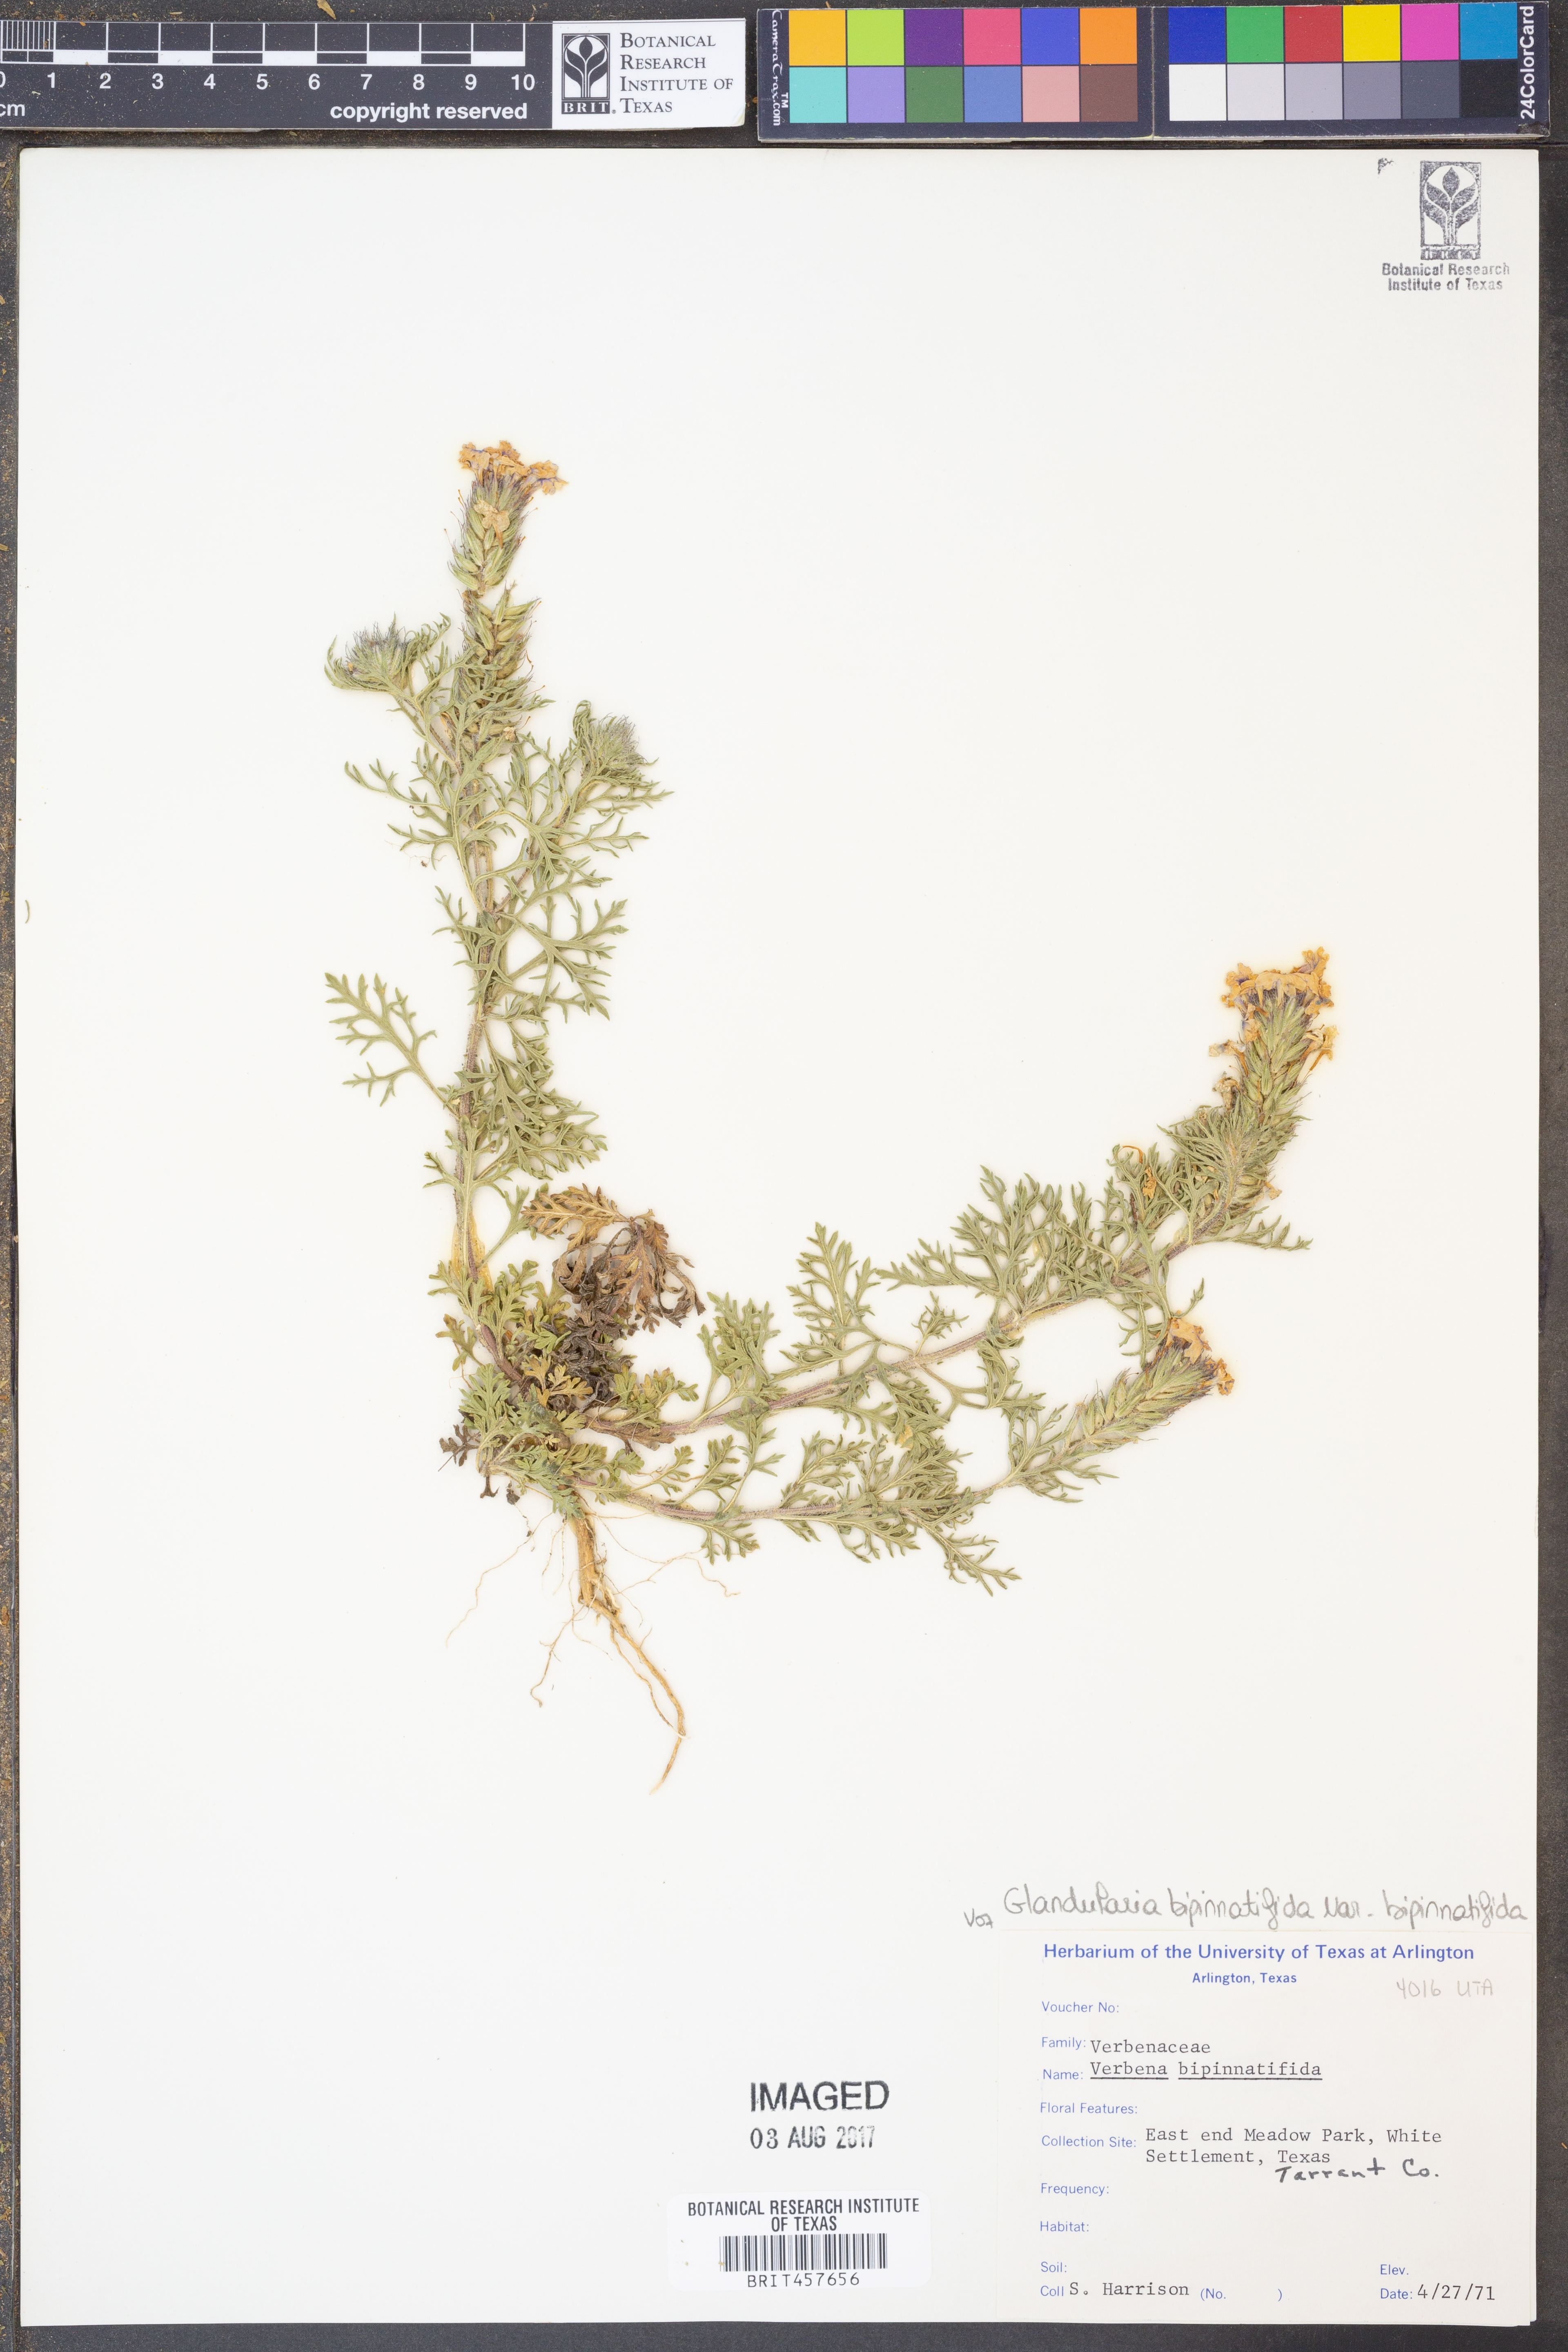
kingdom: Plantae
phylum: Tracheophyta
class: Magnoliopsida
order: Lamiales
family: Verbenaceae
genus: Verbena
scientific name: Verbena bipinnatifida
